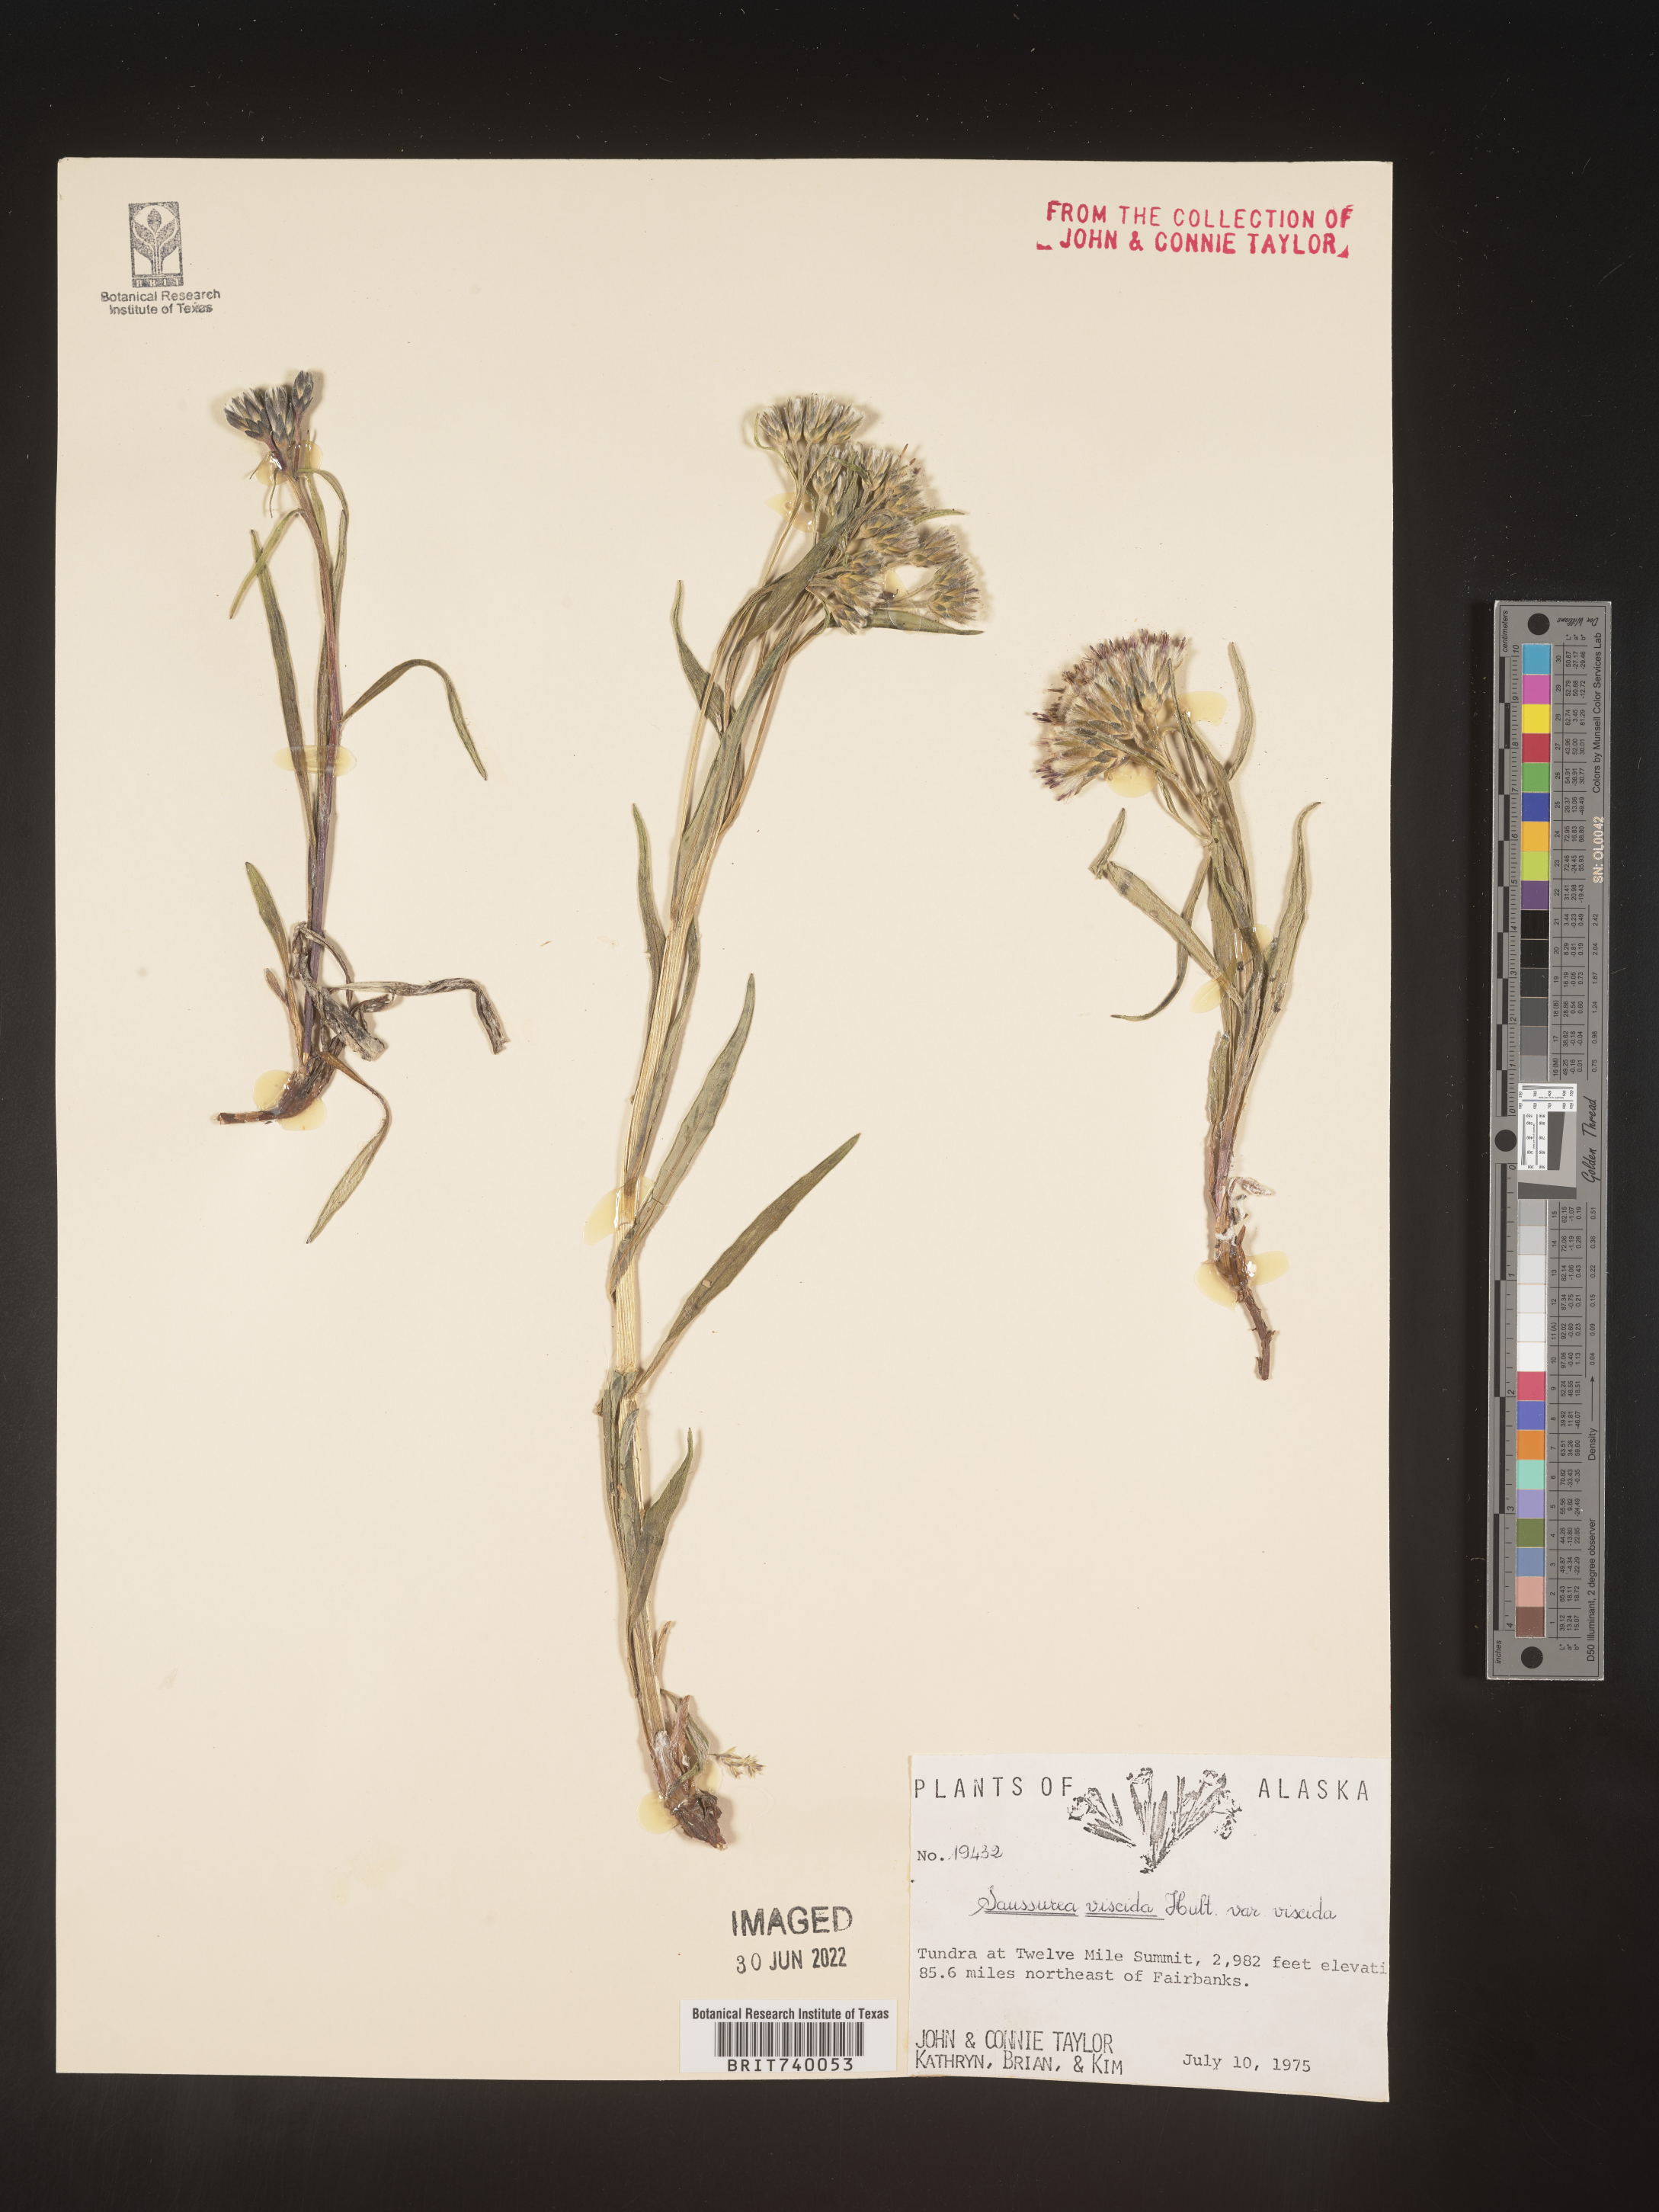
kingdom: Plantae
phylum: Tracheophyta
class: Magnoliopsida
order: Asterales
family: Asteraceae
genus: Saussurea
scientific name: Saussurea
